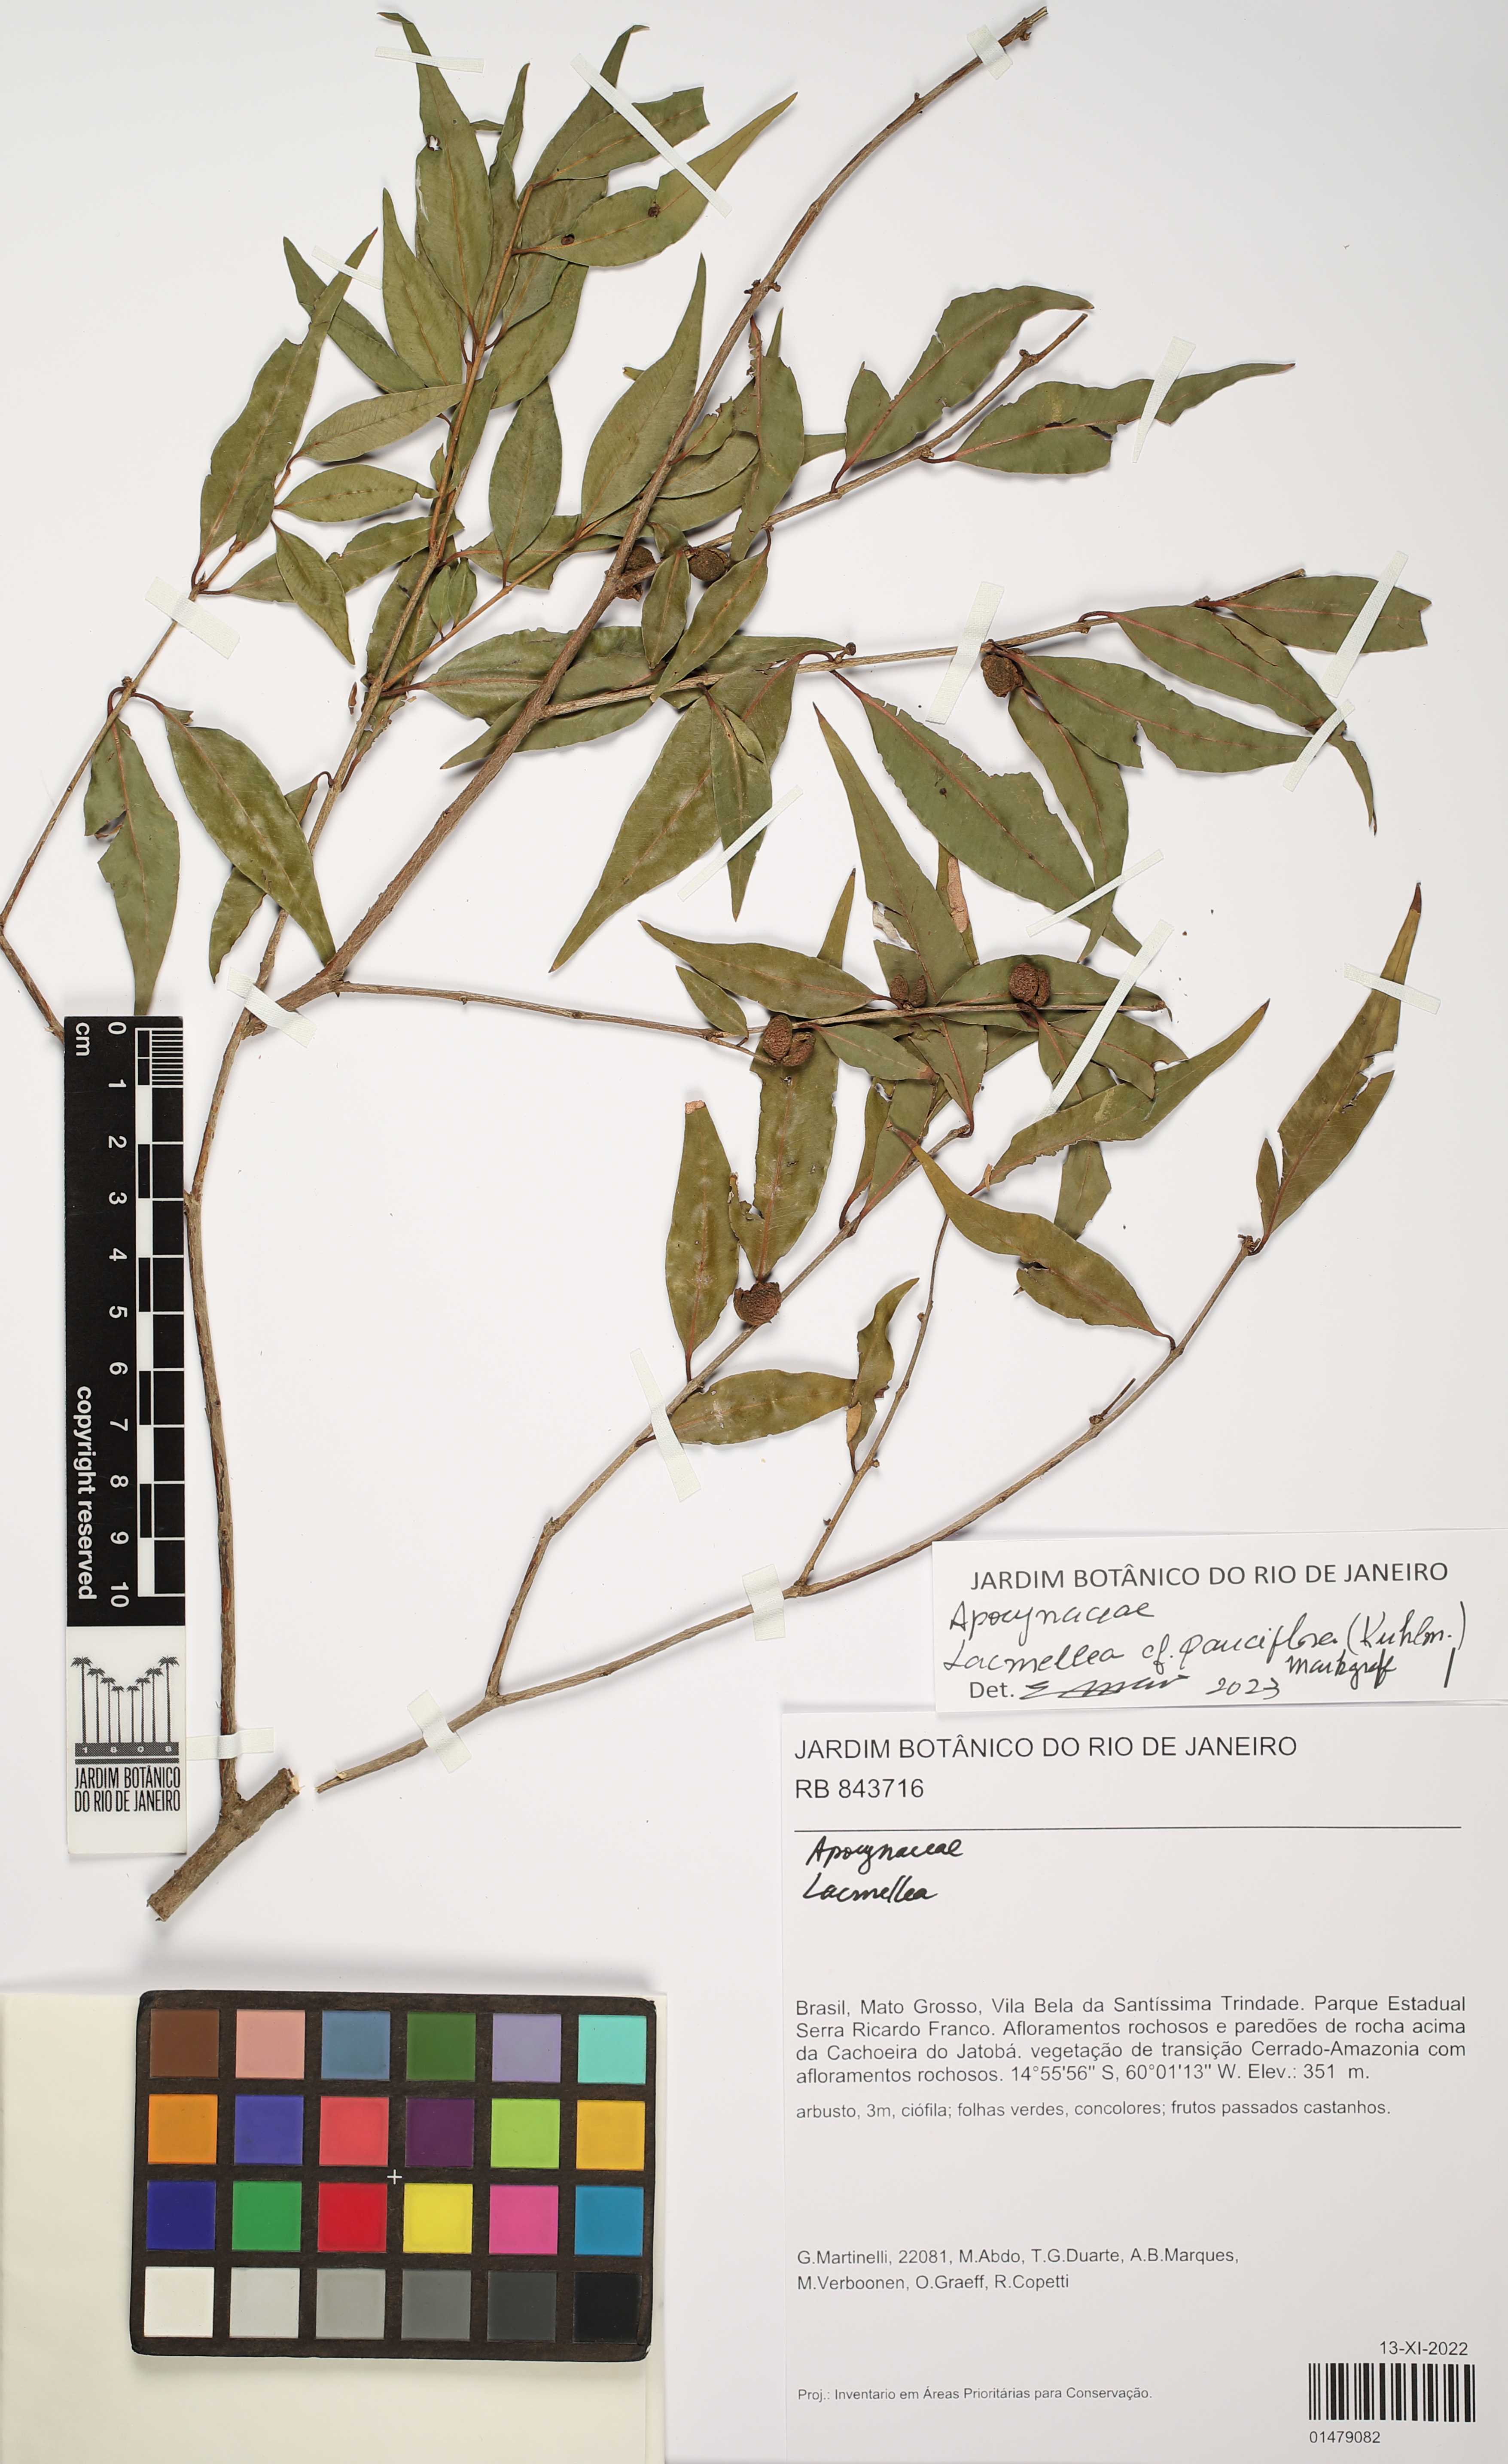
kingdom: Plantae
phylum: Tracheophyta
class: Magnoliopsida
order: Gentianales
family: Apocynaceae
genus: Lacmellea
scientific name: Lacmellea pauciflora
